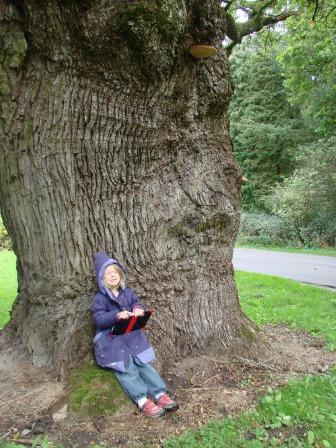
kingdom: Fungi
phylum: Basidiomycota
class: Agaricomycetes
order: Agaricales
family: Fistulinaceae
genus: Fistulina
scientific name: Fistulina hepatica
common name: oksetunge
